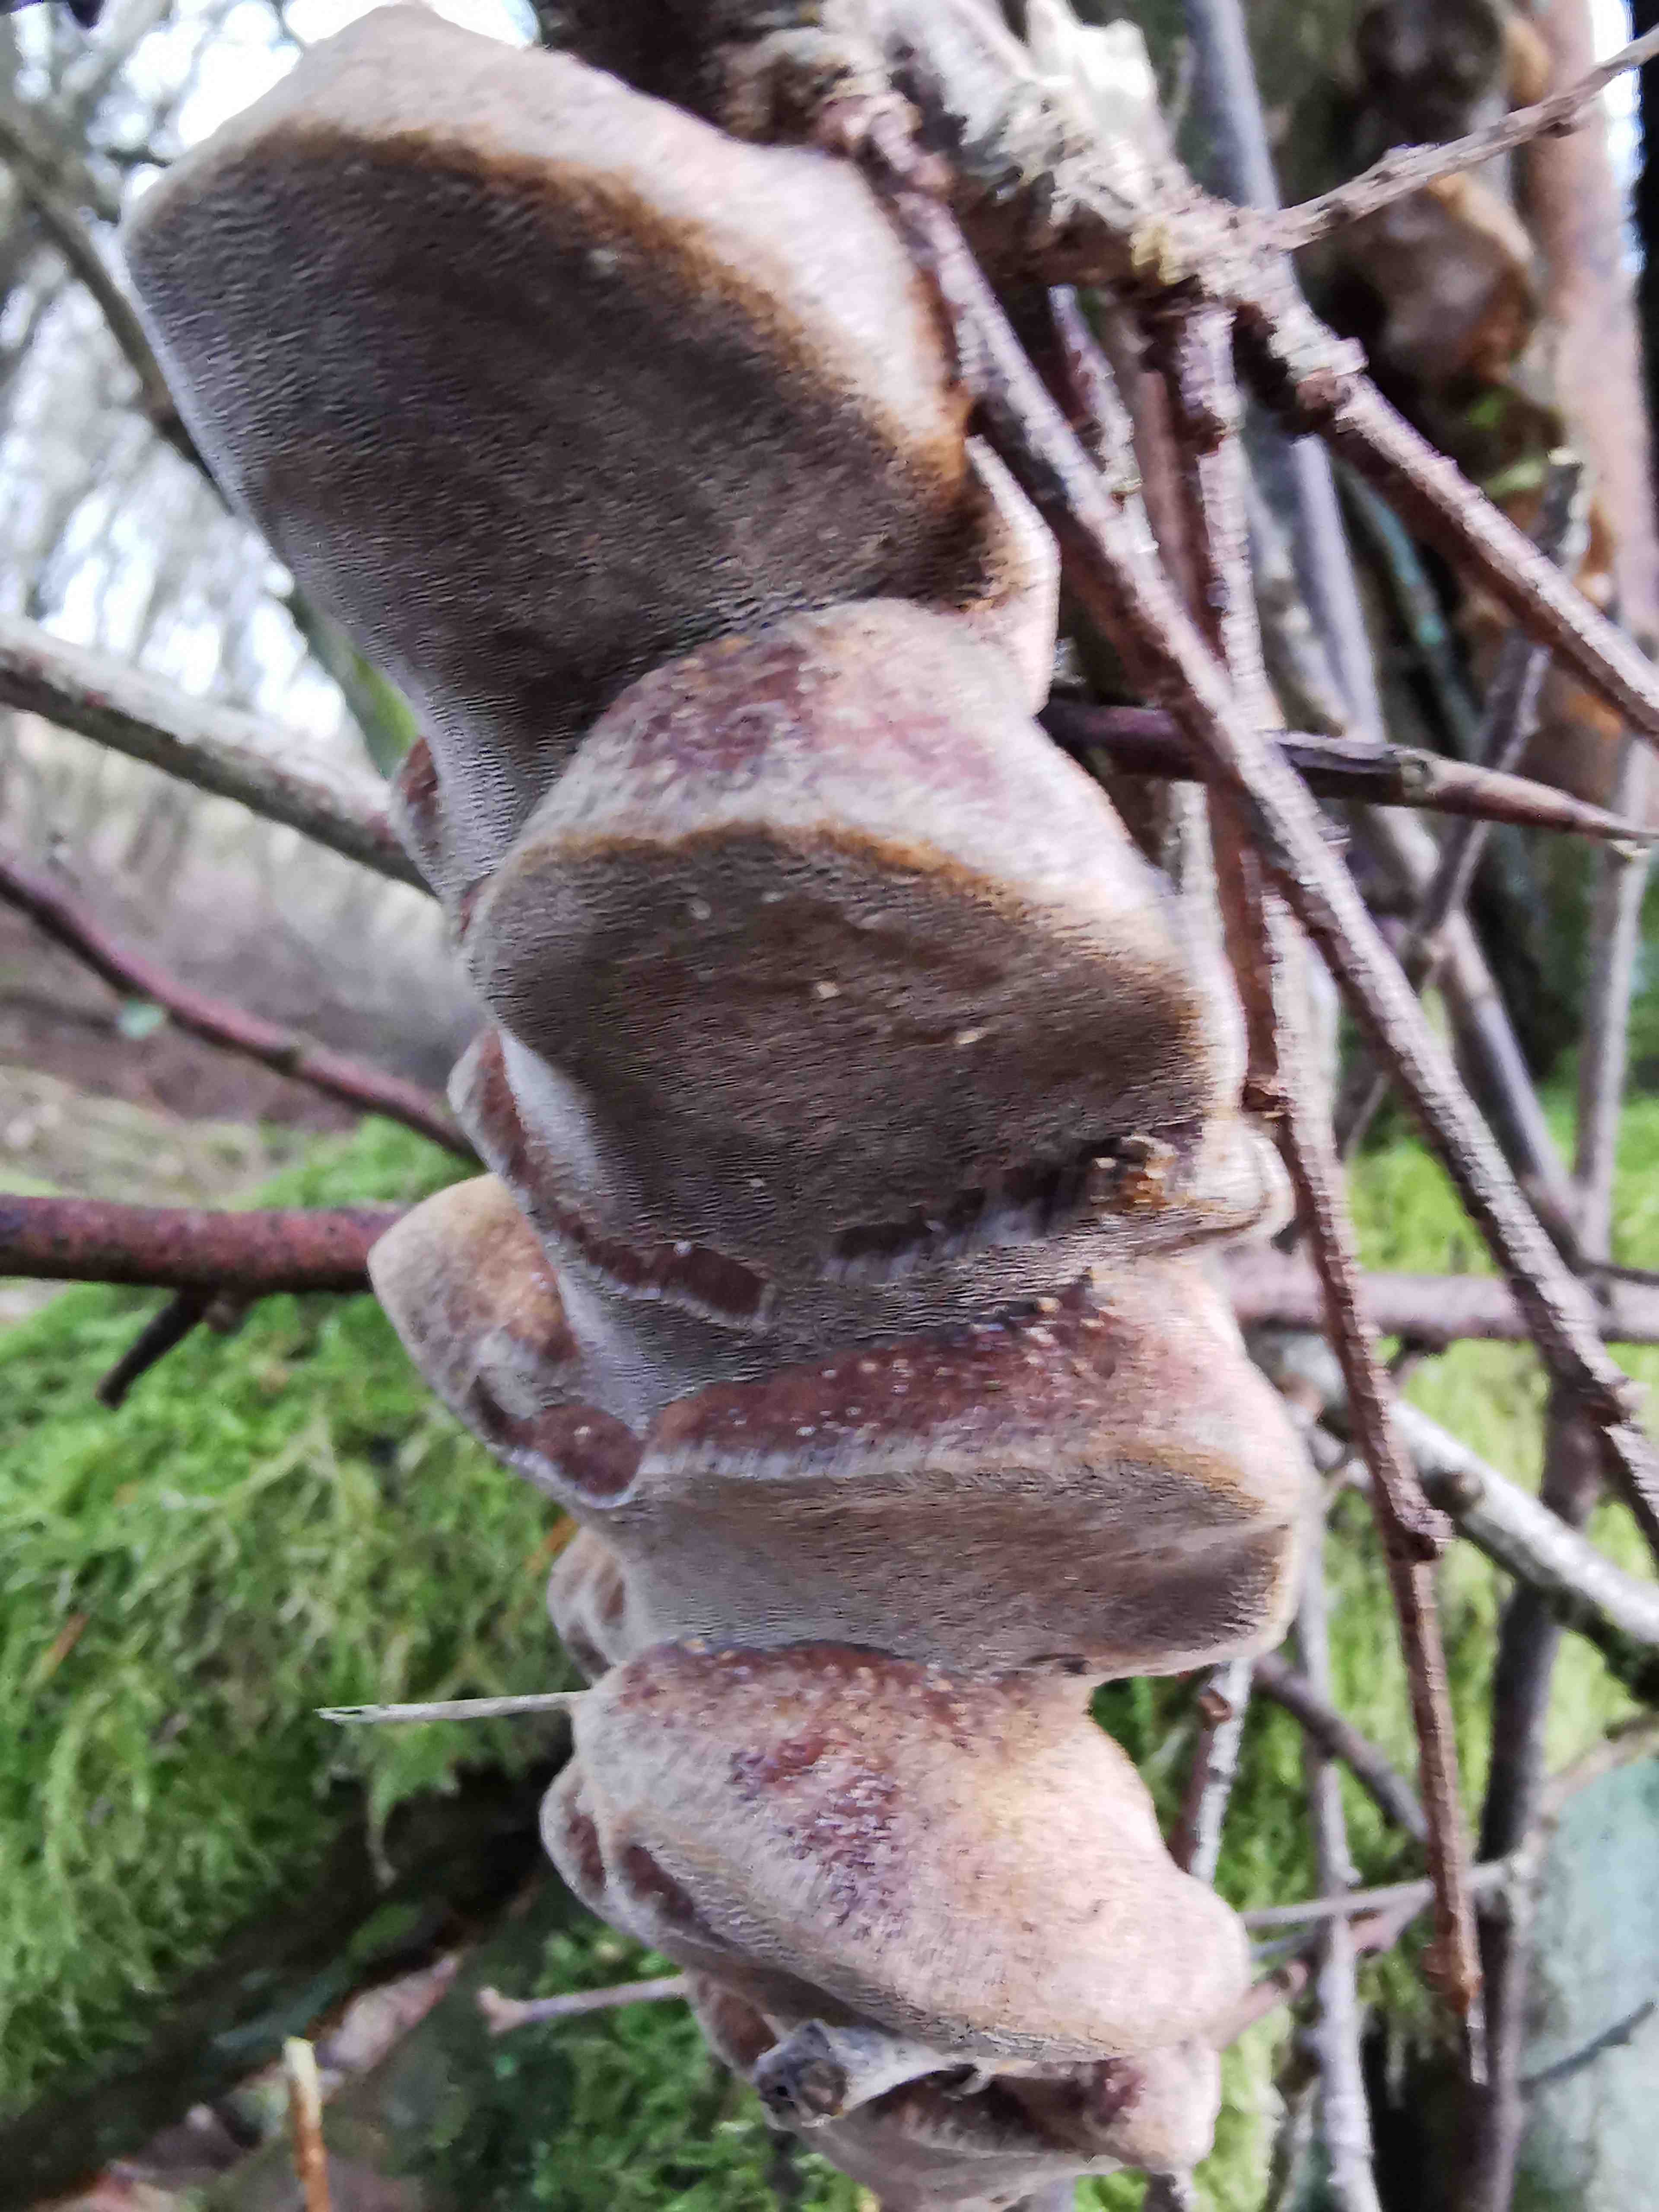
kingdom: Fungi
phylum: Basidiomycota
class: Agaricomycetes
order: Hymenochaetales
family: Hymenochaetaceae
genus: Phellinus
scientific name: Phellinus pomaceus
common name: blomme-ildporesvamp
